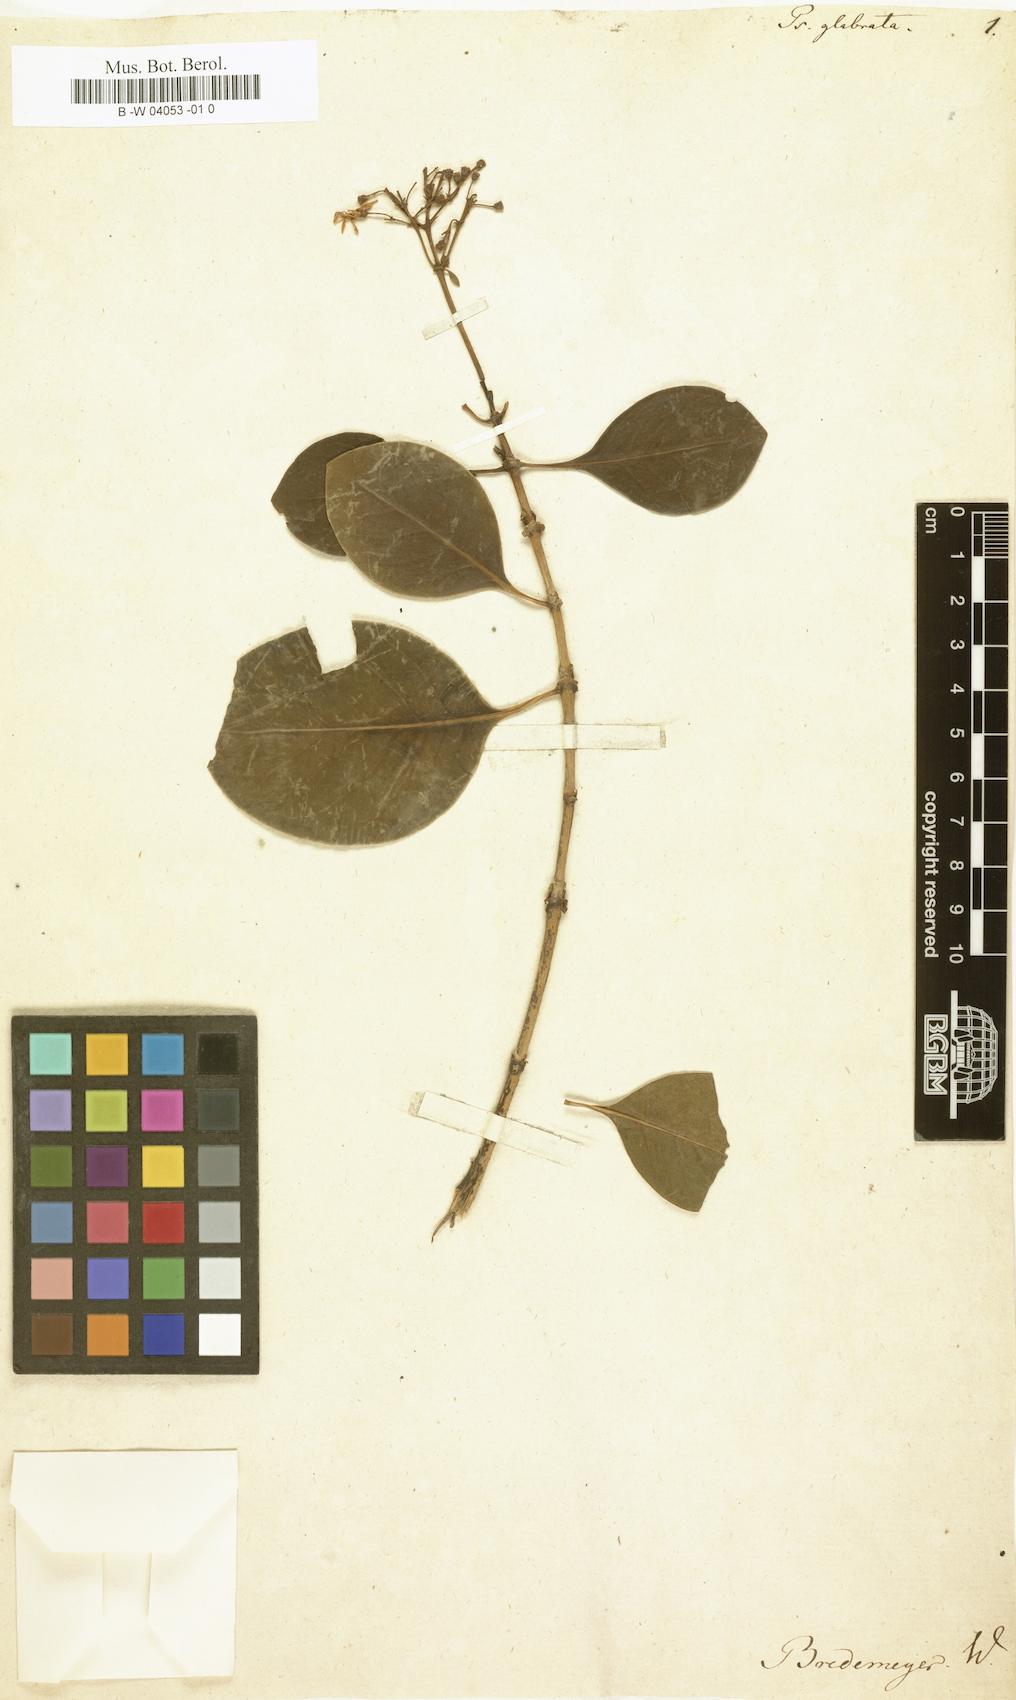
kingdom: Plantae
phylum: Tracheophyta
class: Magnoliopsida
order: Gentianales
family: Rubiaceae
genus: Psychotria
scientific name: Psychotria glabrata
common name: Browne's wild coffee
